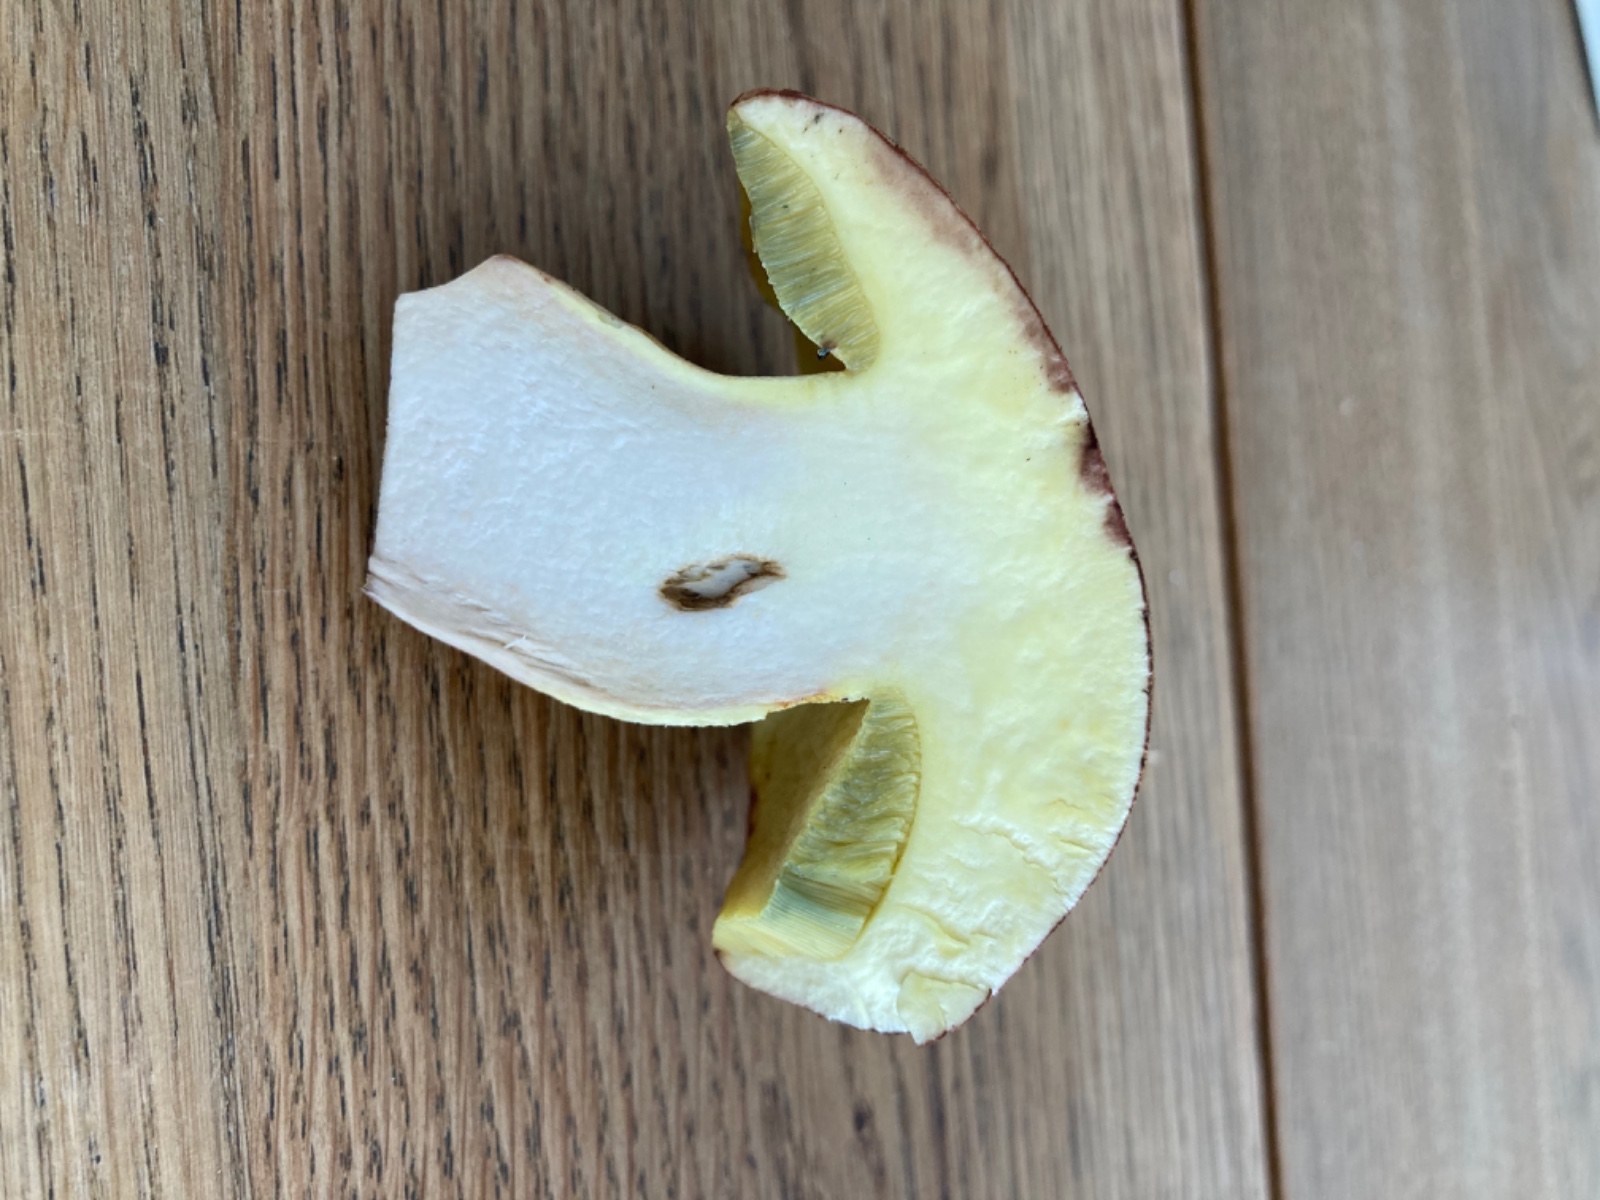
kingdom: Fungi
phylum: Basidiomycota
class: Agaricomycetes
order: Boletales
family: Boletaceae
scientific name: Boletaceae
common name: rørhatfamilien
